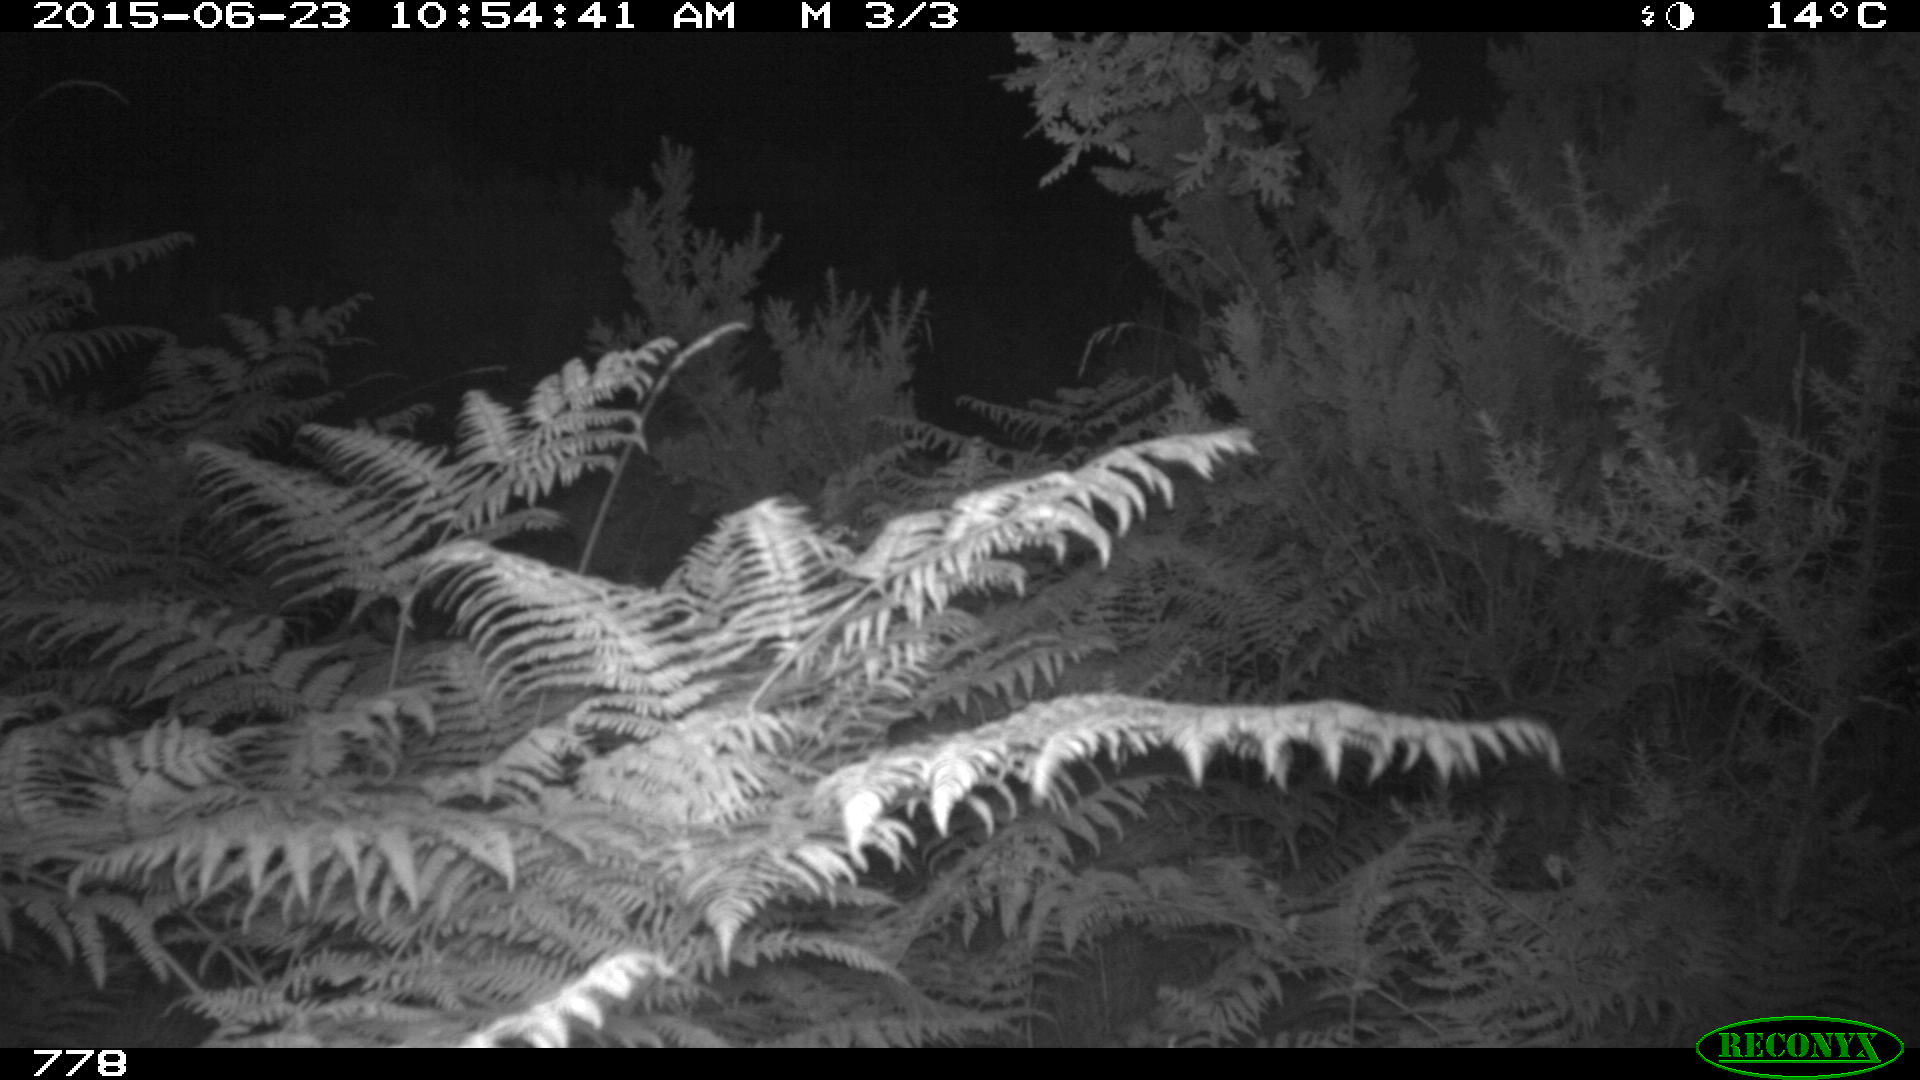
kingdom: Animalia
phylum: Chordata
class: Mammalia
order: Artiodactyla
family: Cervidae
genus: Capreolus
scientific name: Capreolus capreolus
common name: Western roe deer
